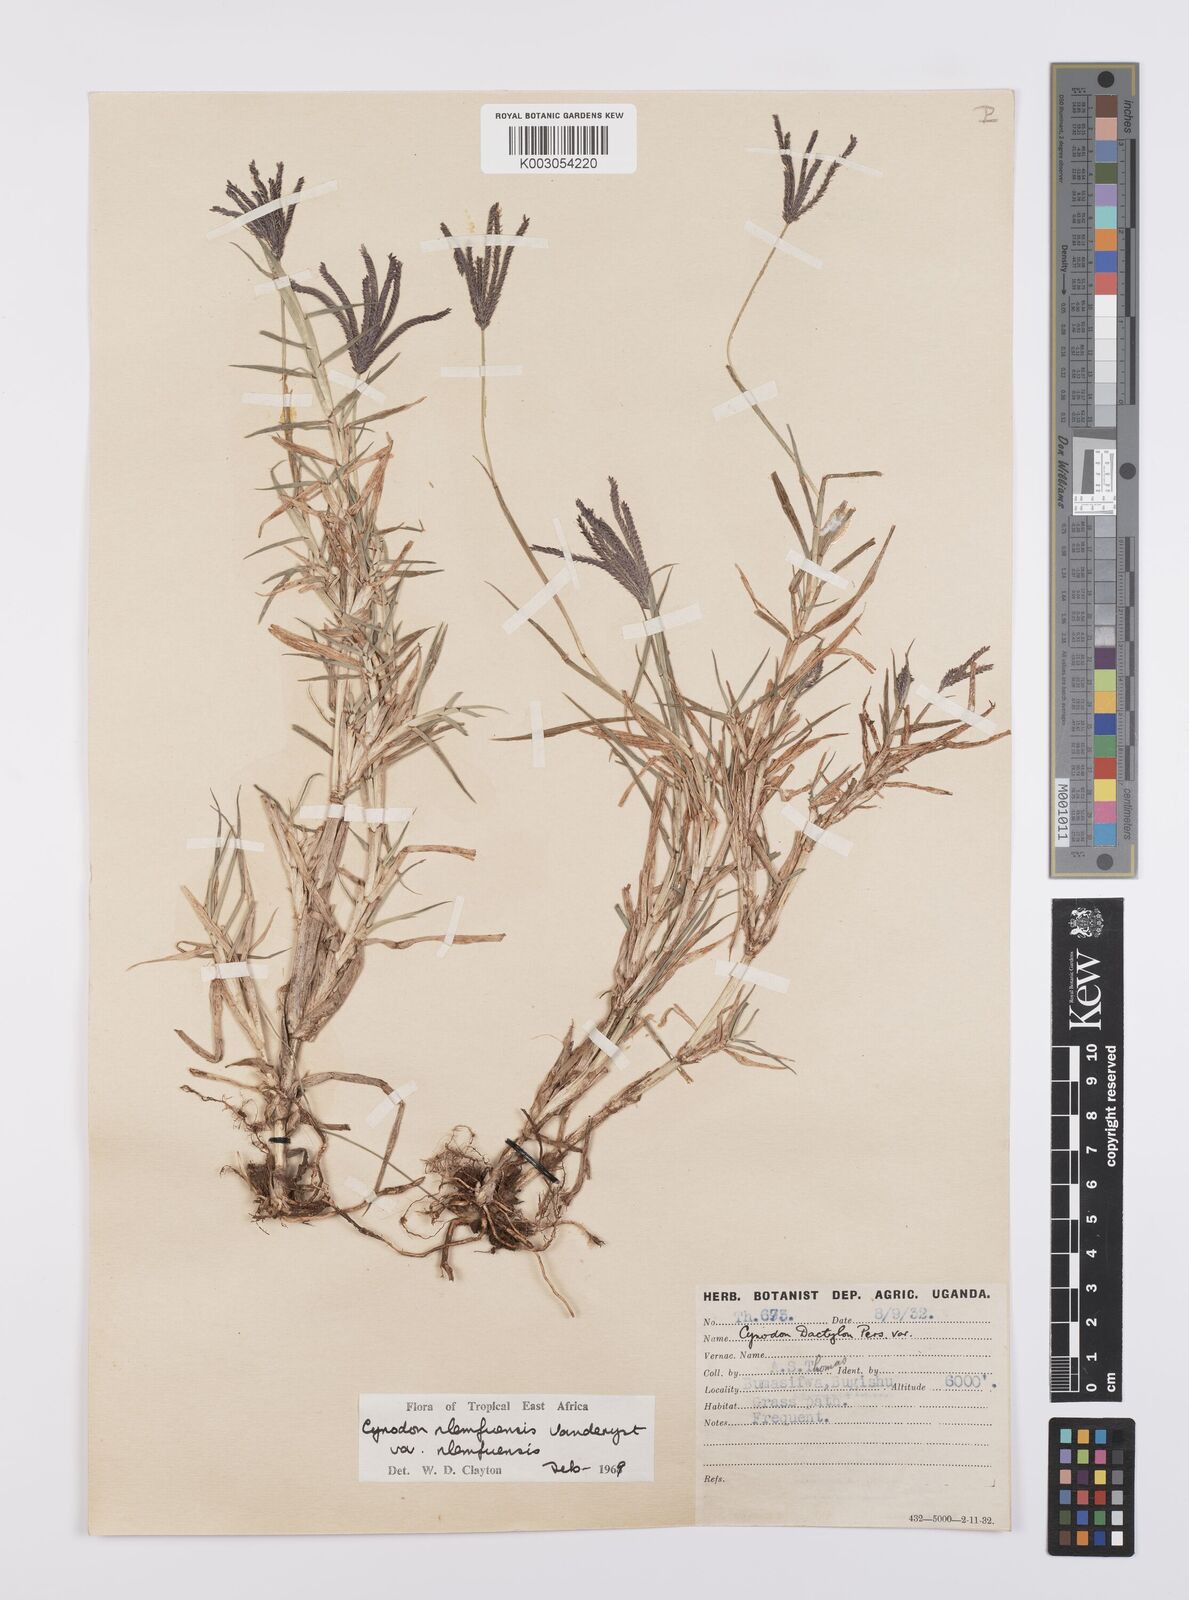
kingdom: Plantae
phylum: Tracheophyta
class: Liliopsida
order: Poales
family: Poaceae
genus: Cynodon
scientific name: Cynodon nlemfuensis
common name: African bermudagrass
